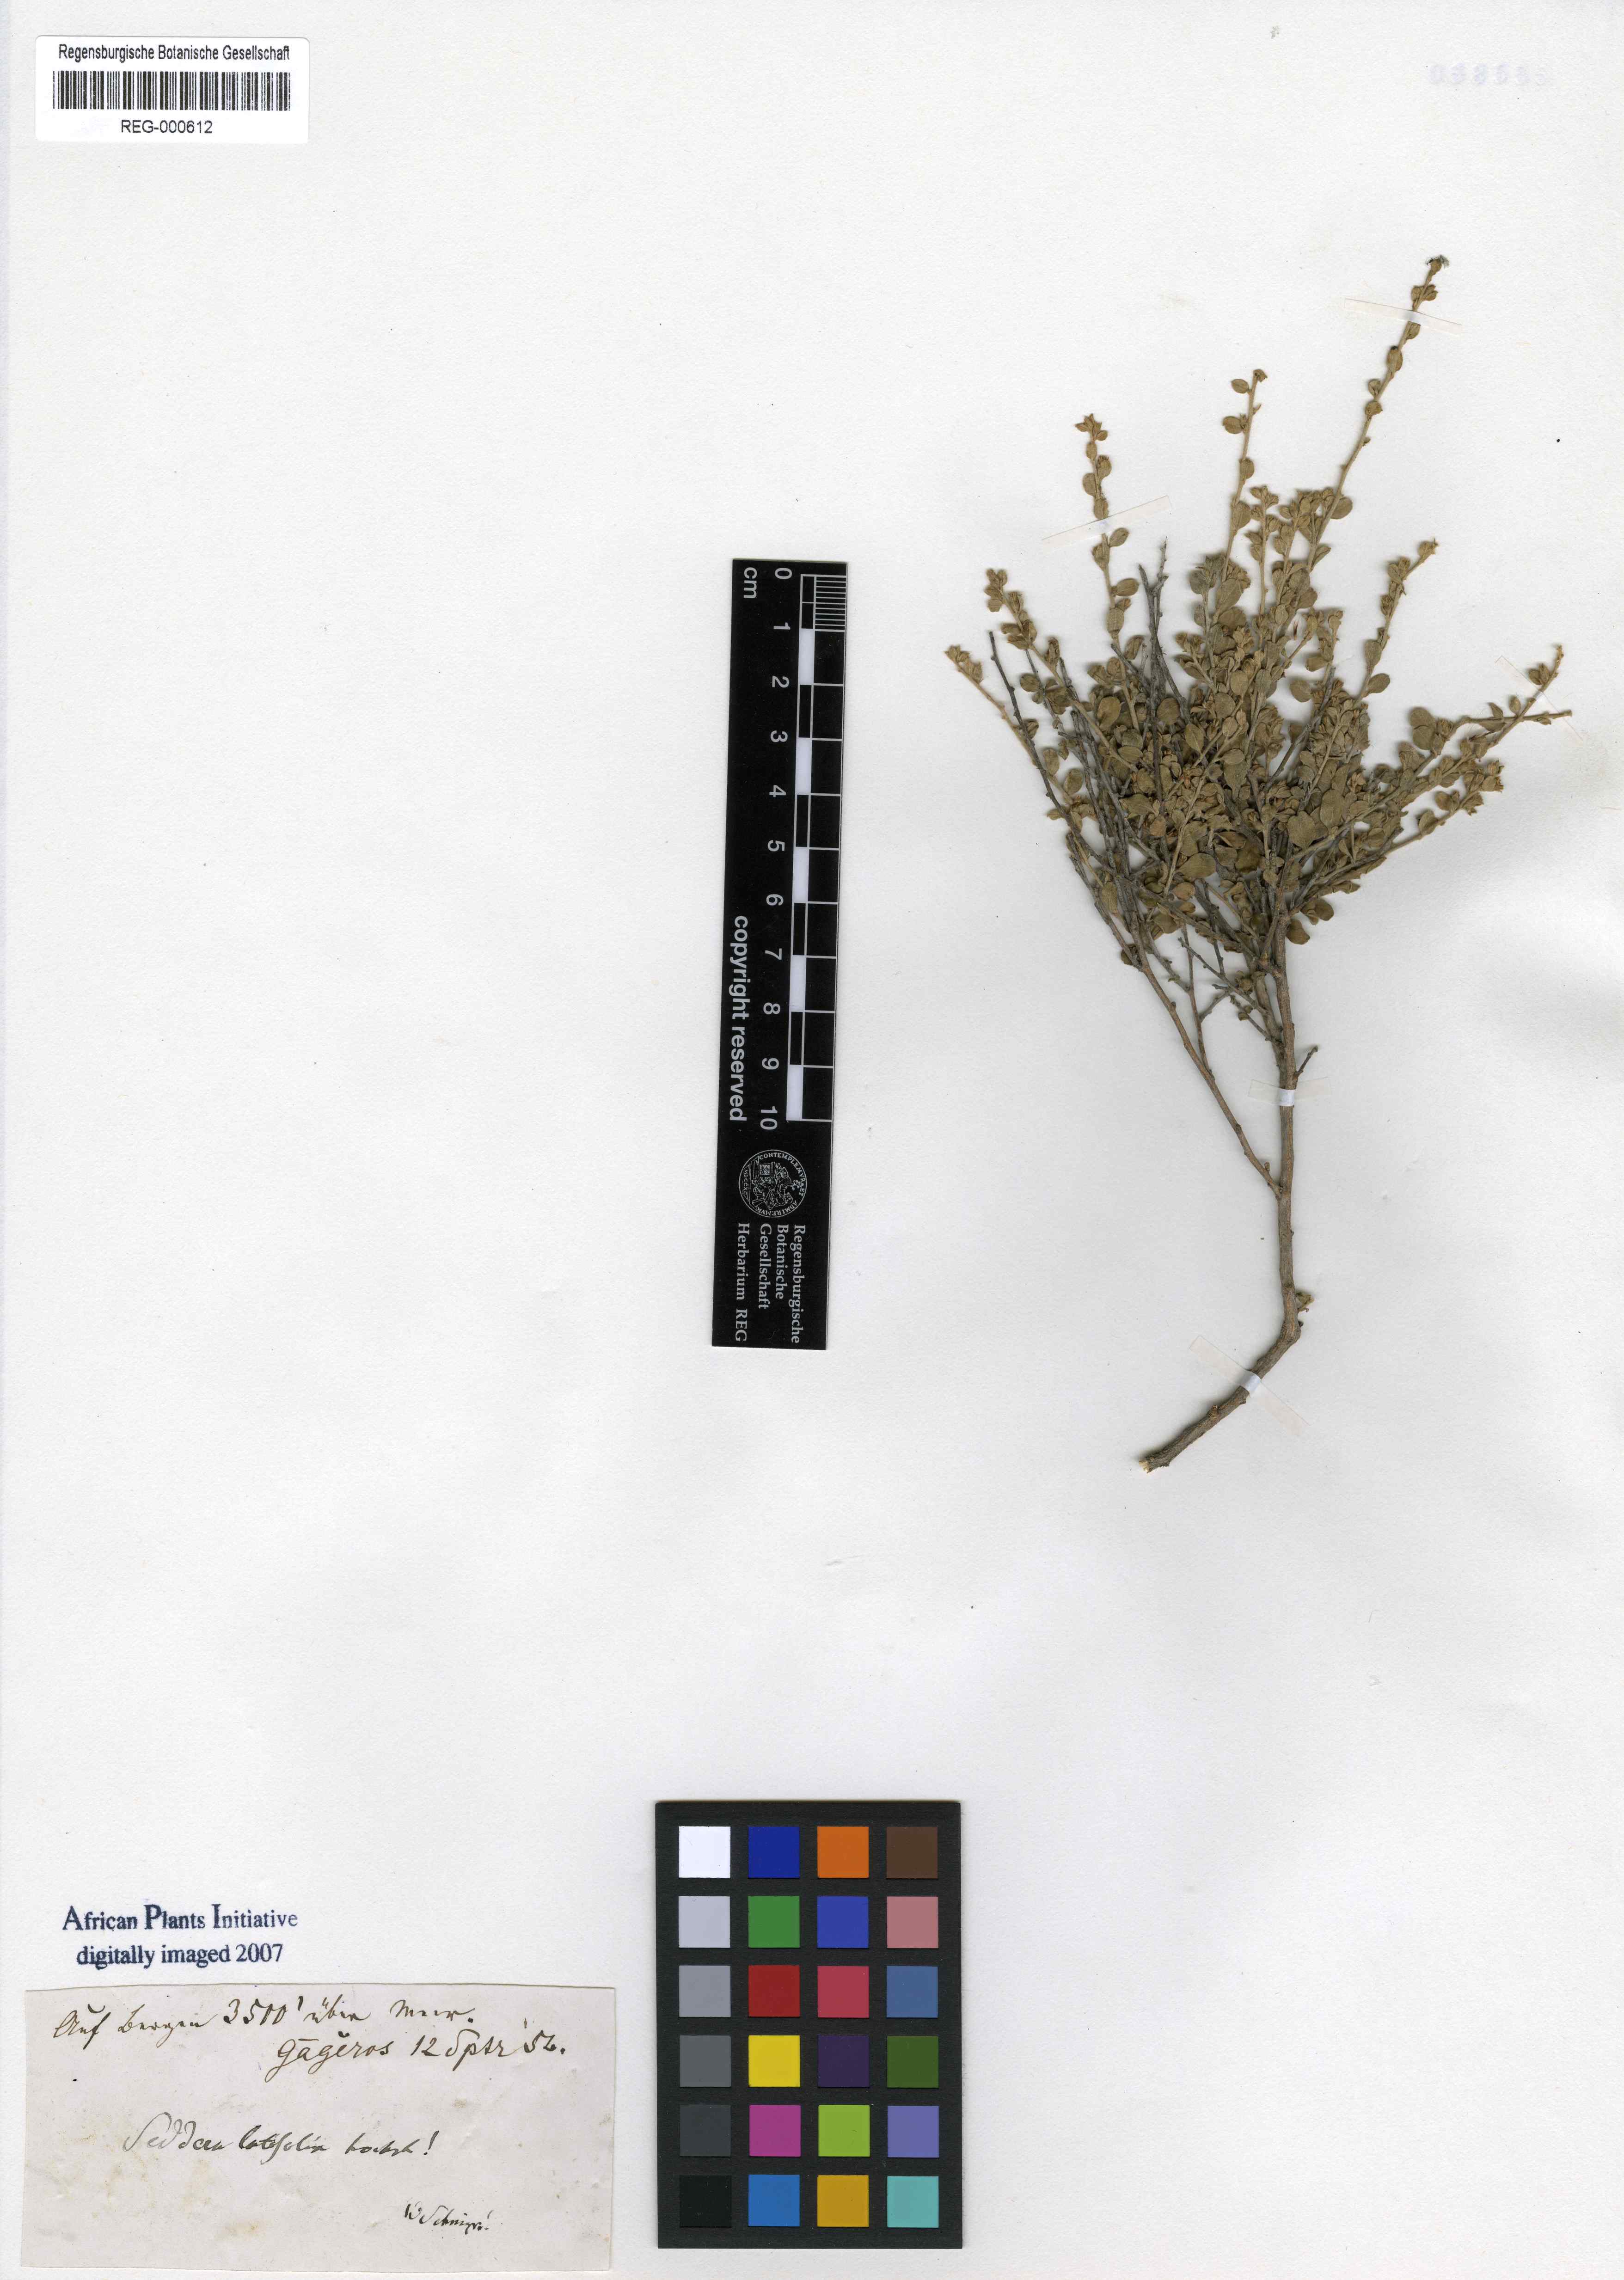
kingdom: Plantae
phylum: Tracheophyta
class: Magnoliopsida
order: Solanales
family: Convolvulaceae
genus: Seddera
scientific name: Seddera latifolia
